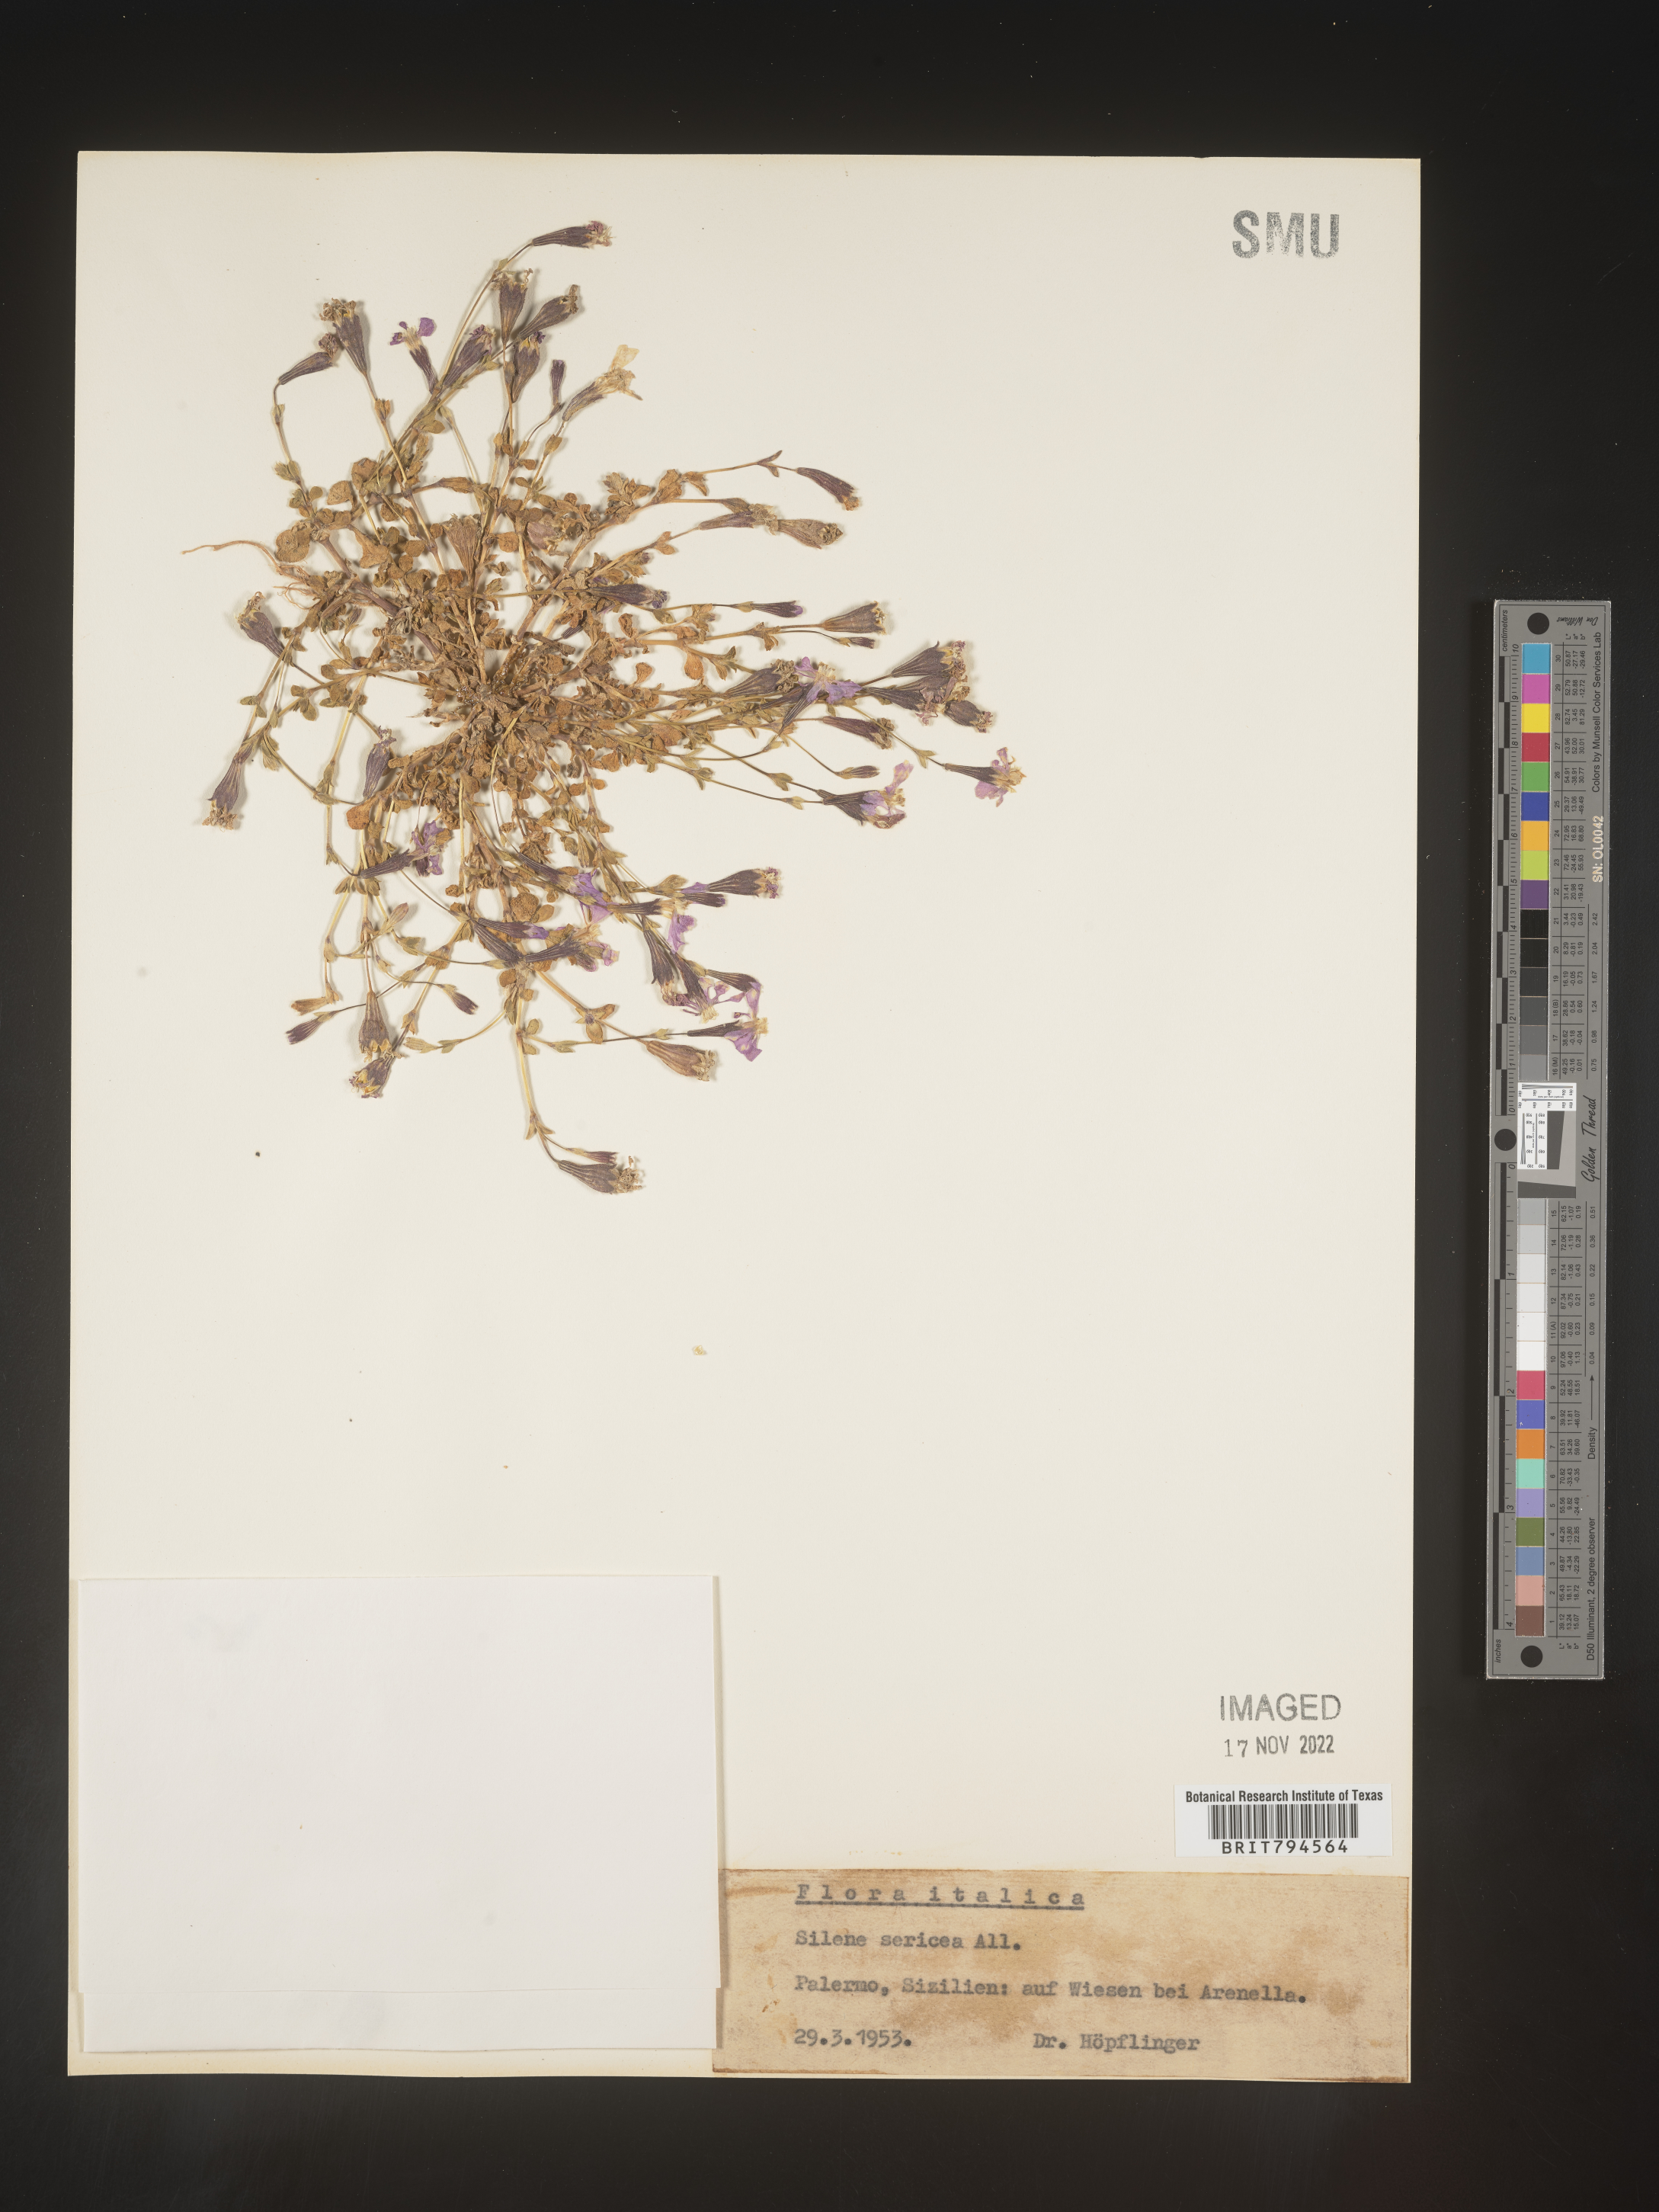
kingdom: Plantae
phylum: Tracheophyta
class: Magnoliopsida
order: Caryophyllales
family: Caryophyllaceae
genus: Silene
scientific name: Silene sericea
